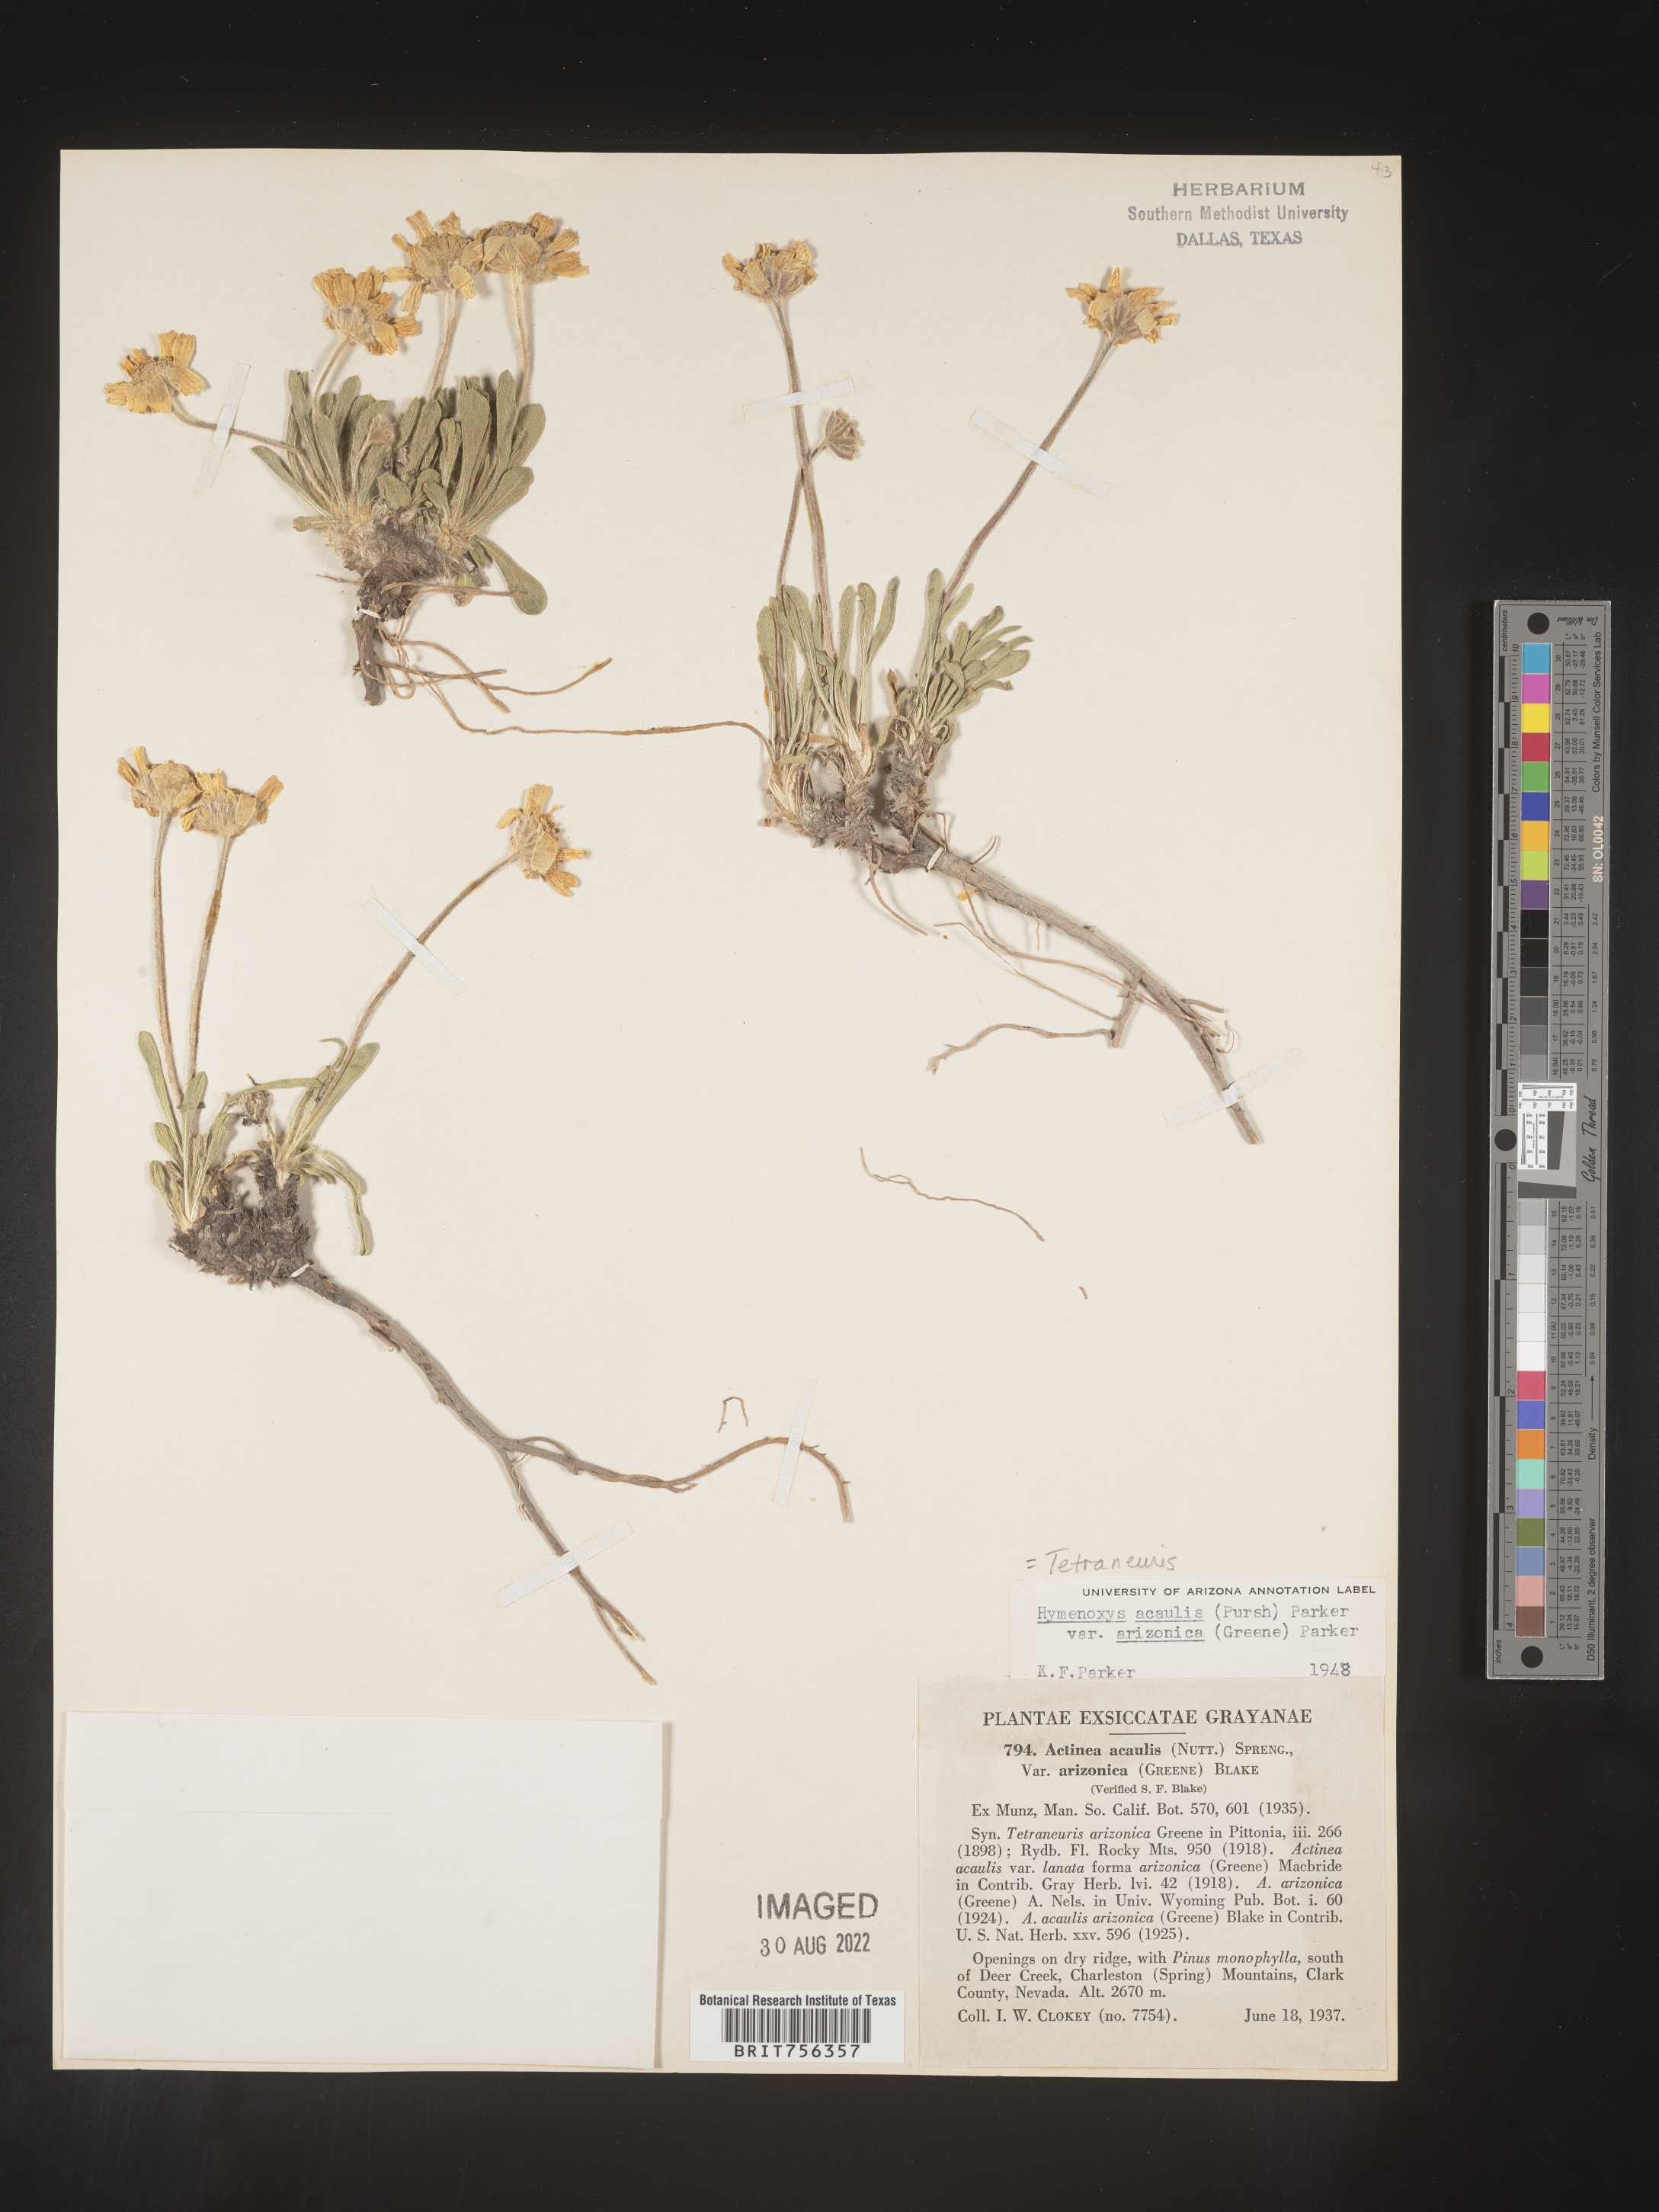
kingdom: Plantae
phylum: Tracheophyta
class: Magnoliopsida
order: Asterales
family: Asteraceae
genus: Tetraneuris
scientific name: Tetraneuris acaulis
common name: Butte marigold
